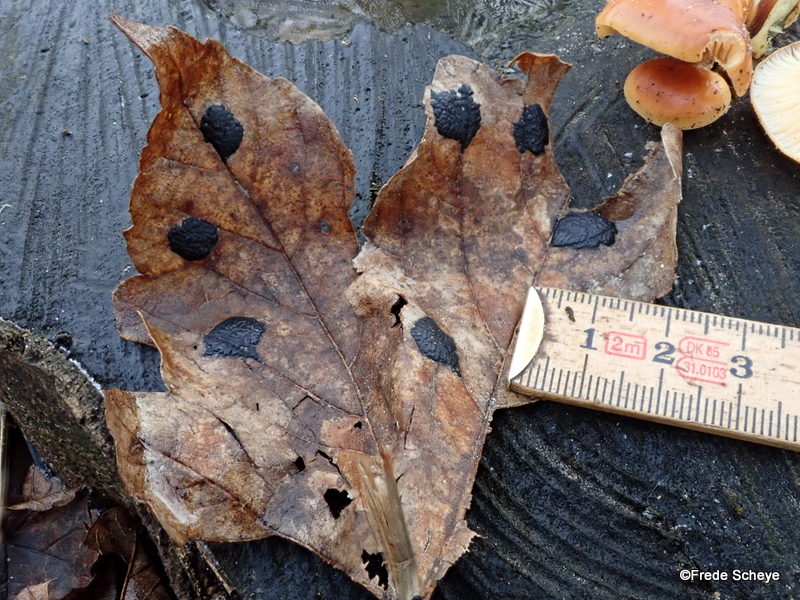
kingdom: Fungi
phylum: Ascomycota
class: Leotiomycetes
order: Rhytismatales
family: Rhytismataceae
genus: Rhytisma
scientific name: Rhytisma acerinum
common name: ahorn-rynkeplet
